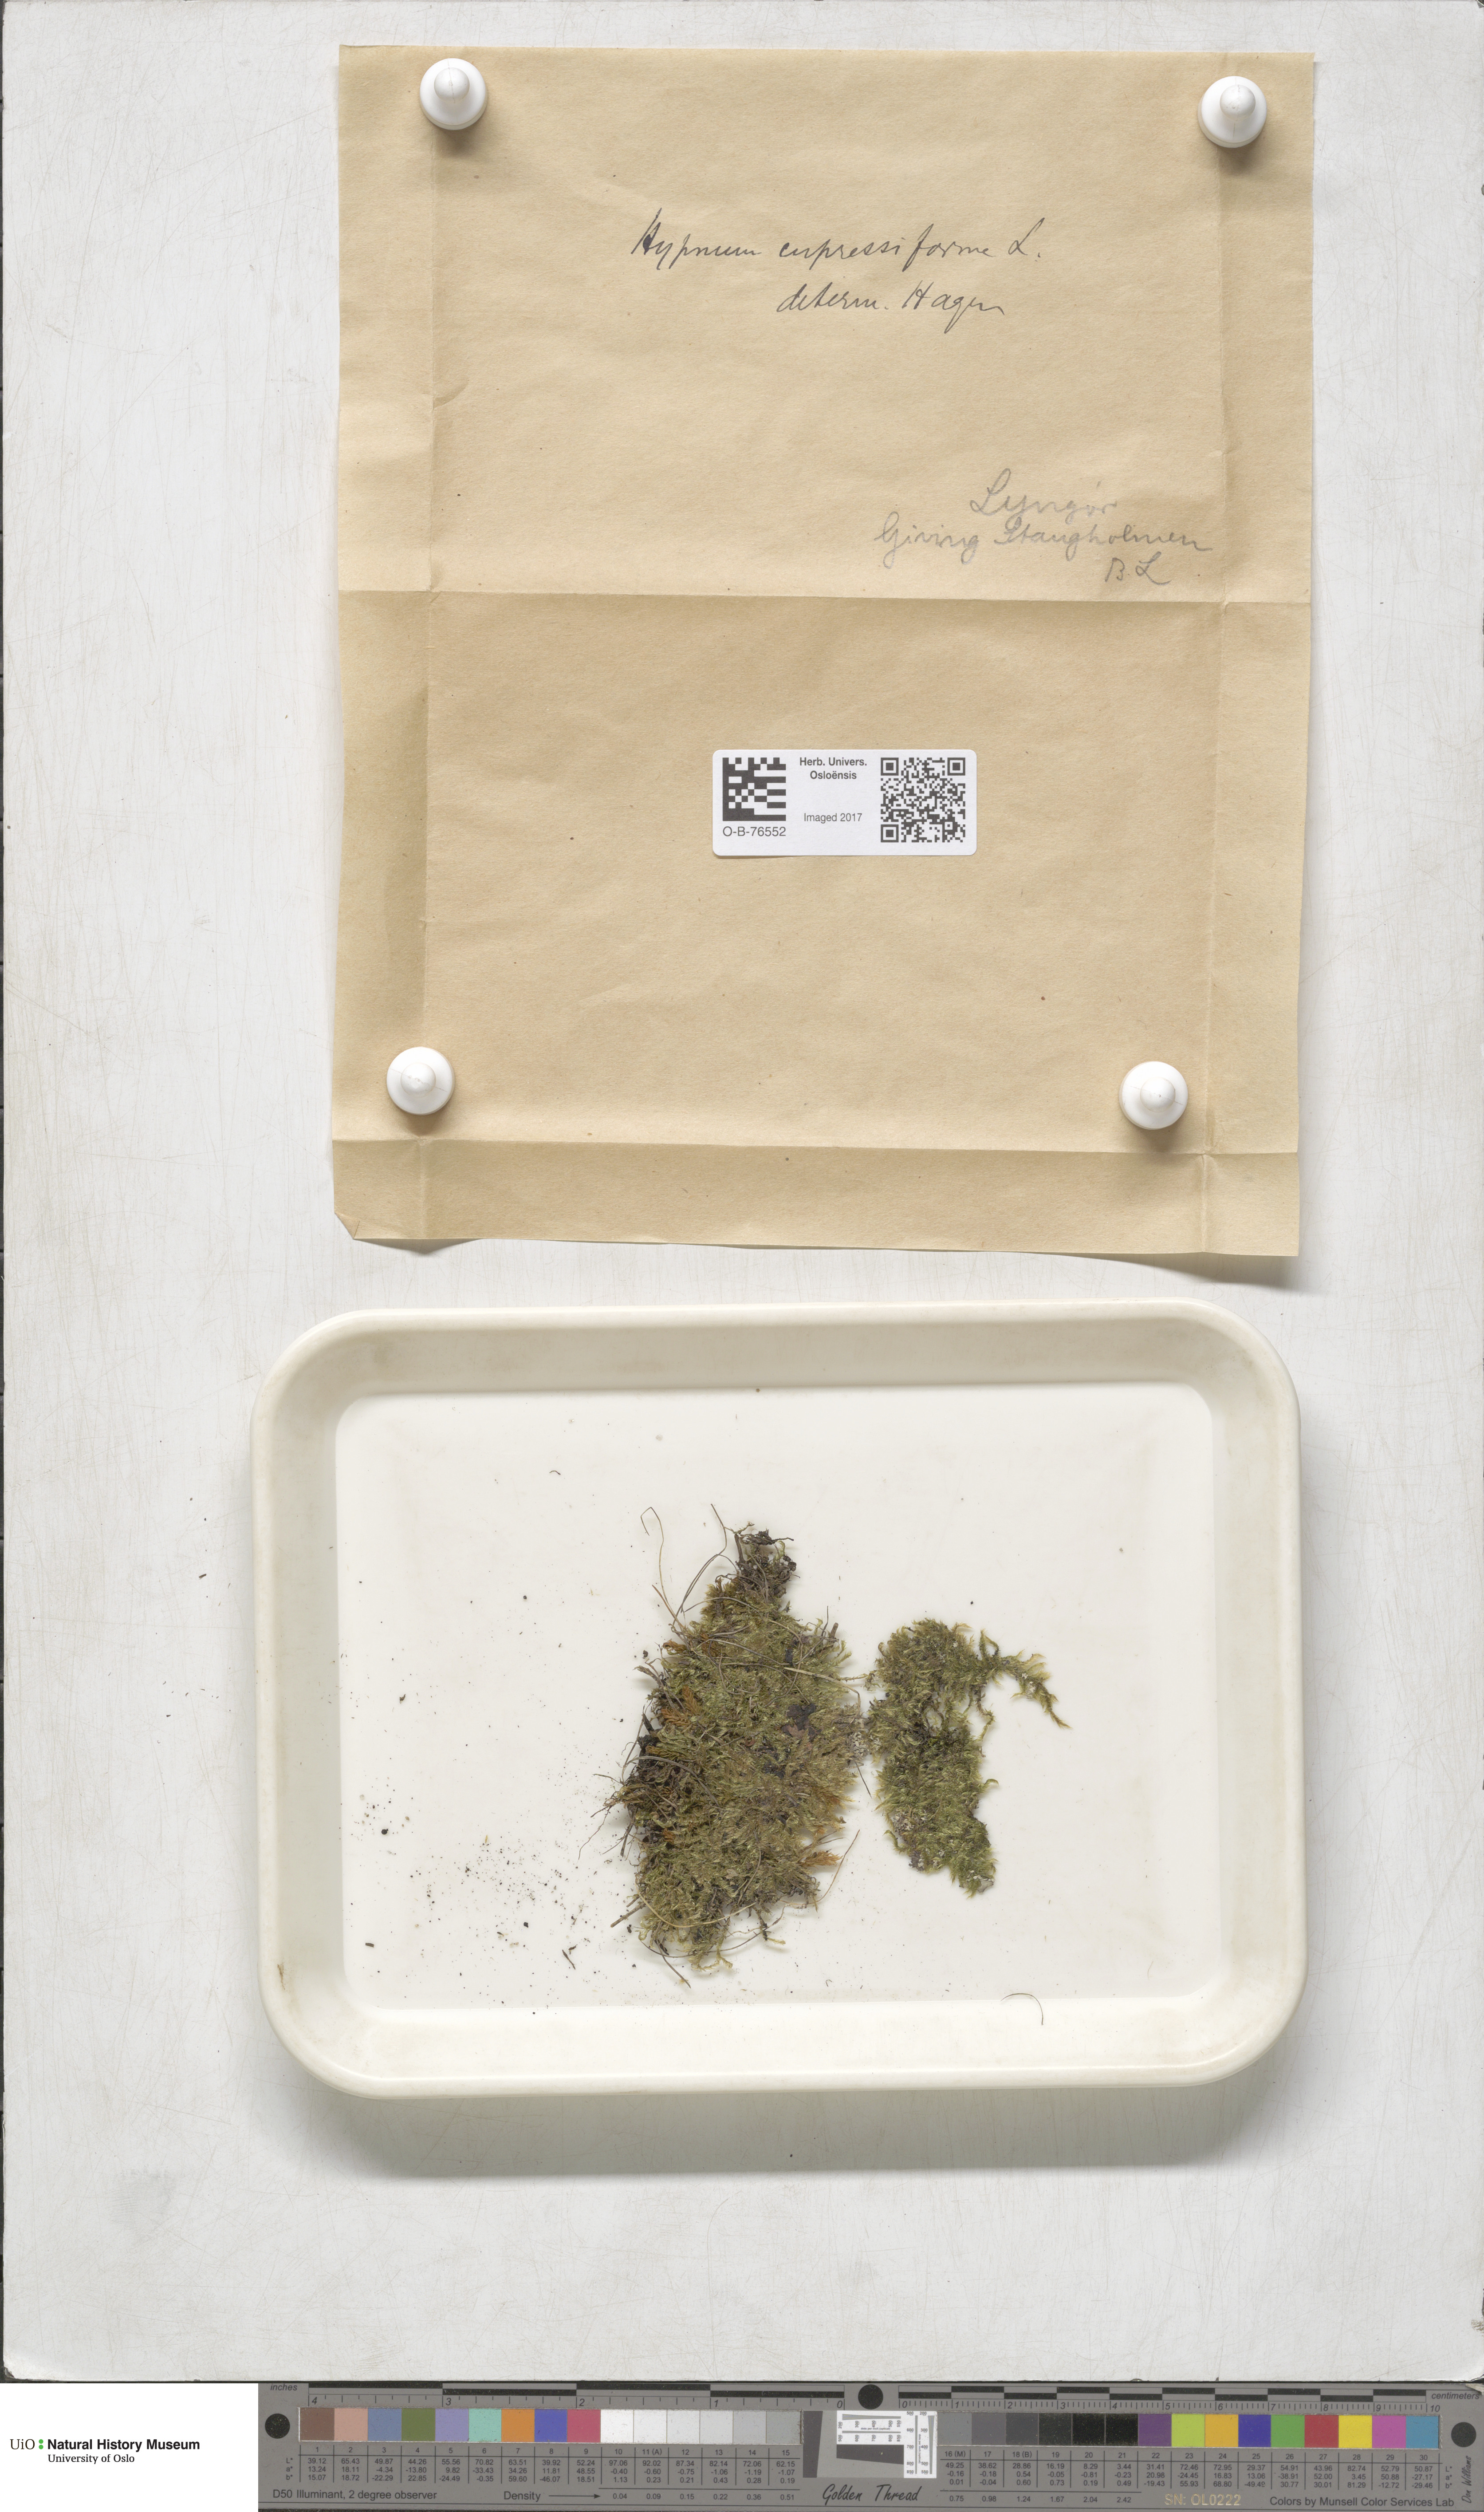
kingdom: Plantae
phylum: Bryophyta
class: Bryopsida
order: Hypnales
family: Hypnaceae
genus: Hypnum
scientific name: Hypnum cupressiforme
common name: Cypress-leaved plait-moss
